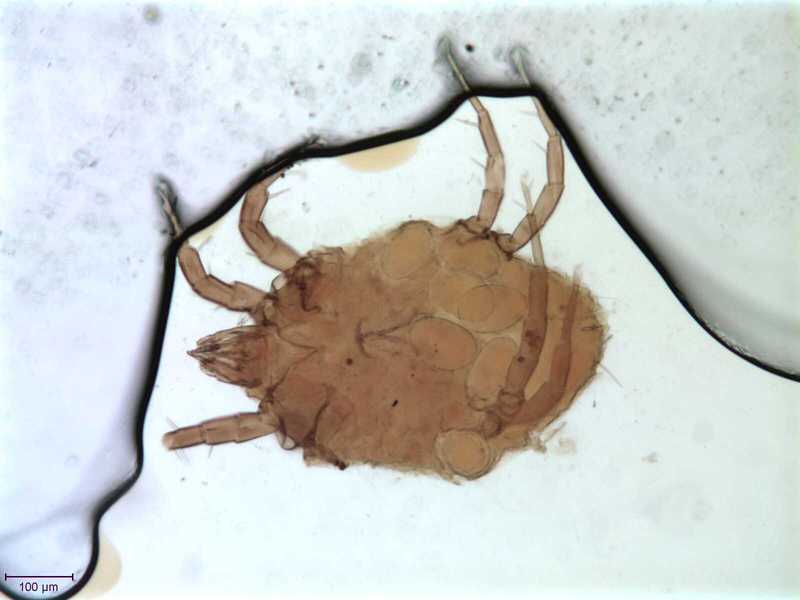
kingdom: Animalia
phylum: Arthropoda
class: Arachnida
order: Sarcoptiformes
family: Algophagidae
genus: Hericia
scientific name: Hericia fermentationis
